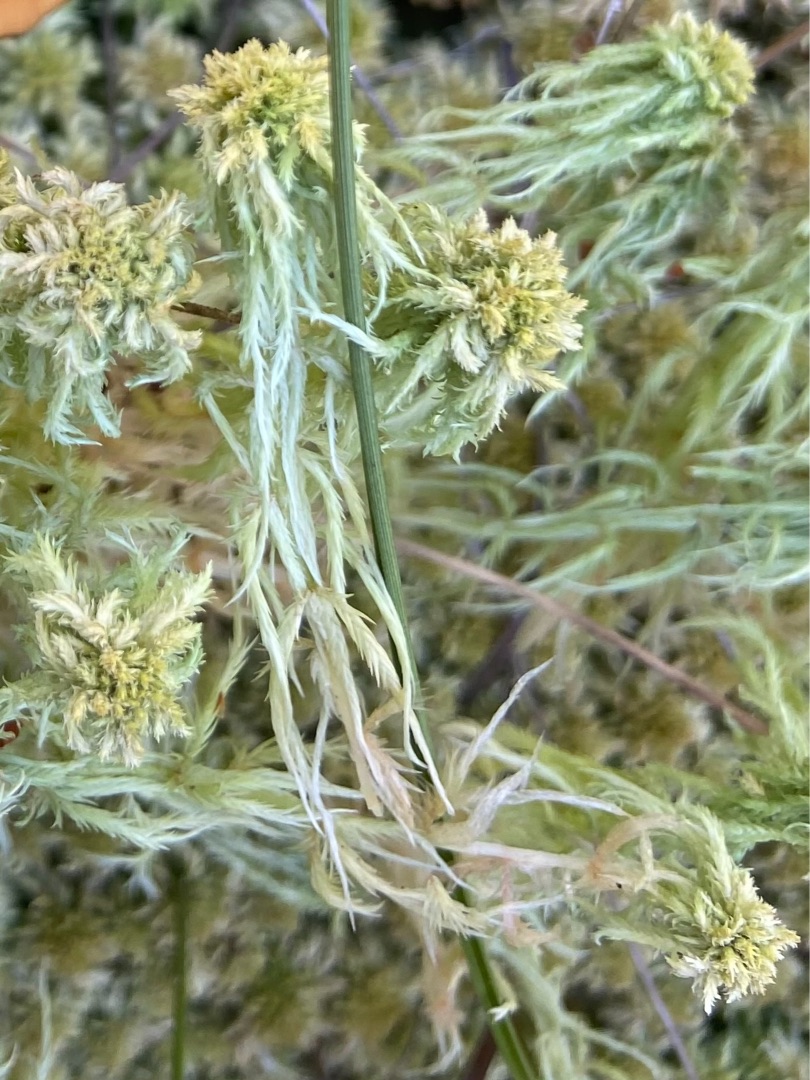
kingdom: Plantae
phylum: Bryophyta
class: Sphagnopsida
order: Sphagnales
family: Sphagnaceae
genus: Sphagnum
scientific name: Sphagnum
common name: Tørvemosslægten
